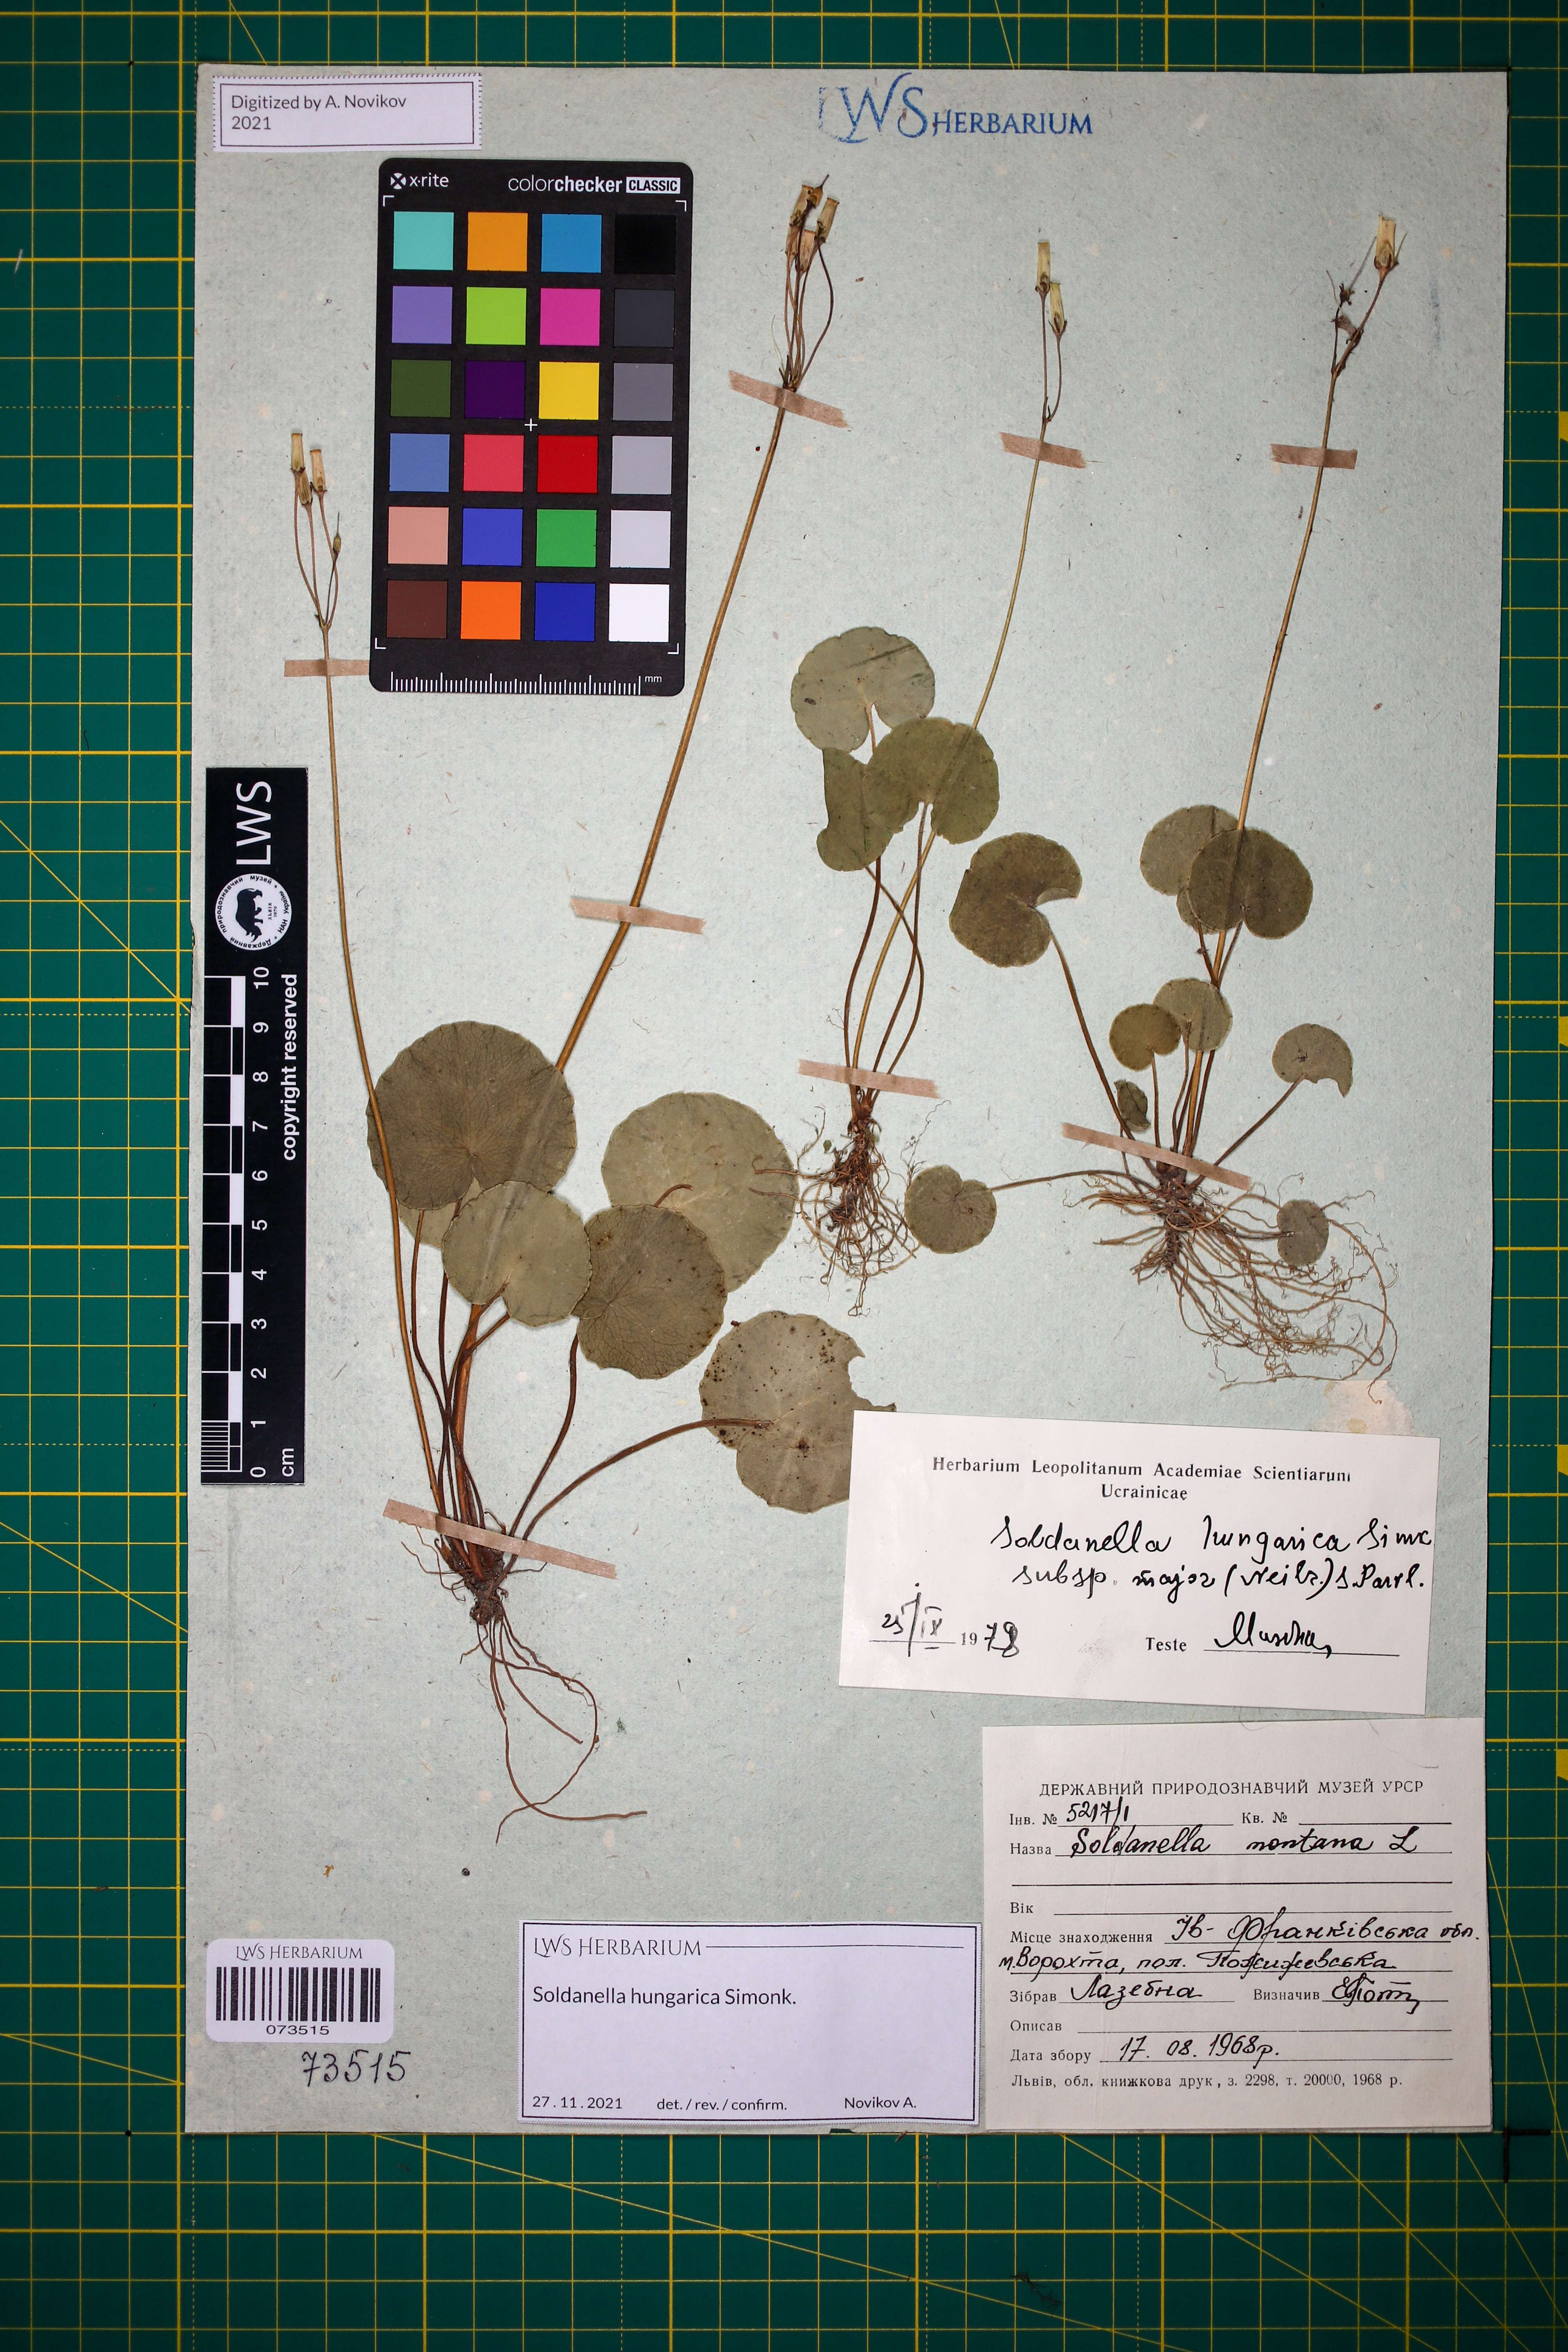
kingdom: Plantae
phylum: Tracheophyta
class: Magnoliopsida
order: Ericales
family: Primulaceae
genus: Soldanella
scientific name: Soldanella hungarica
